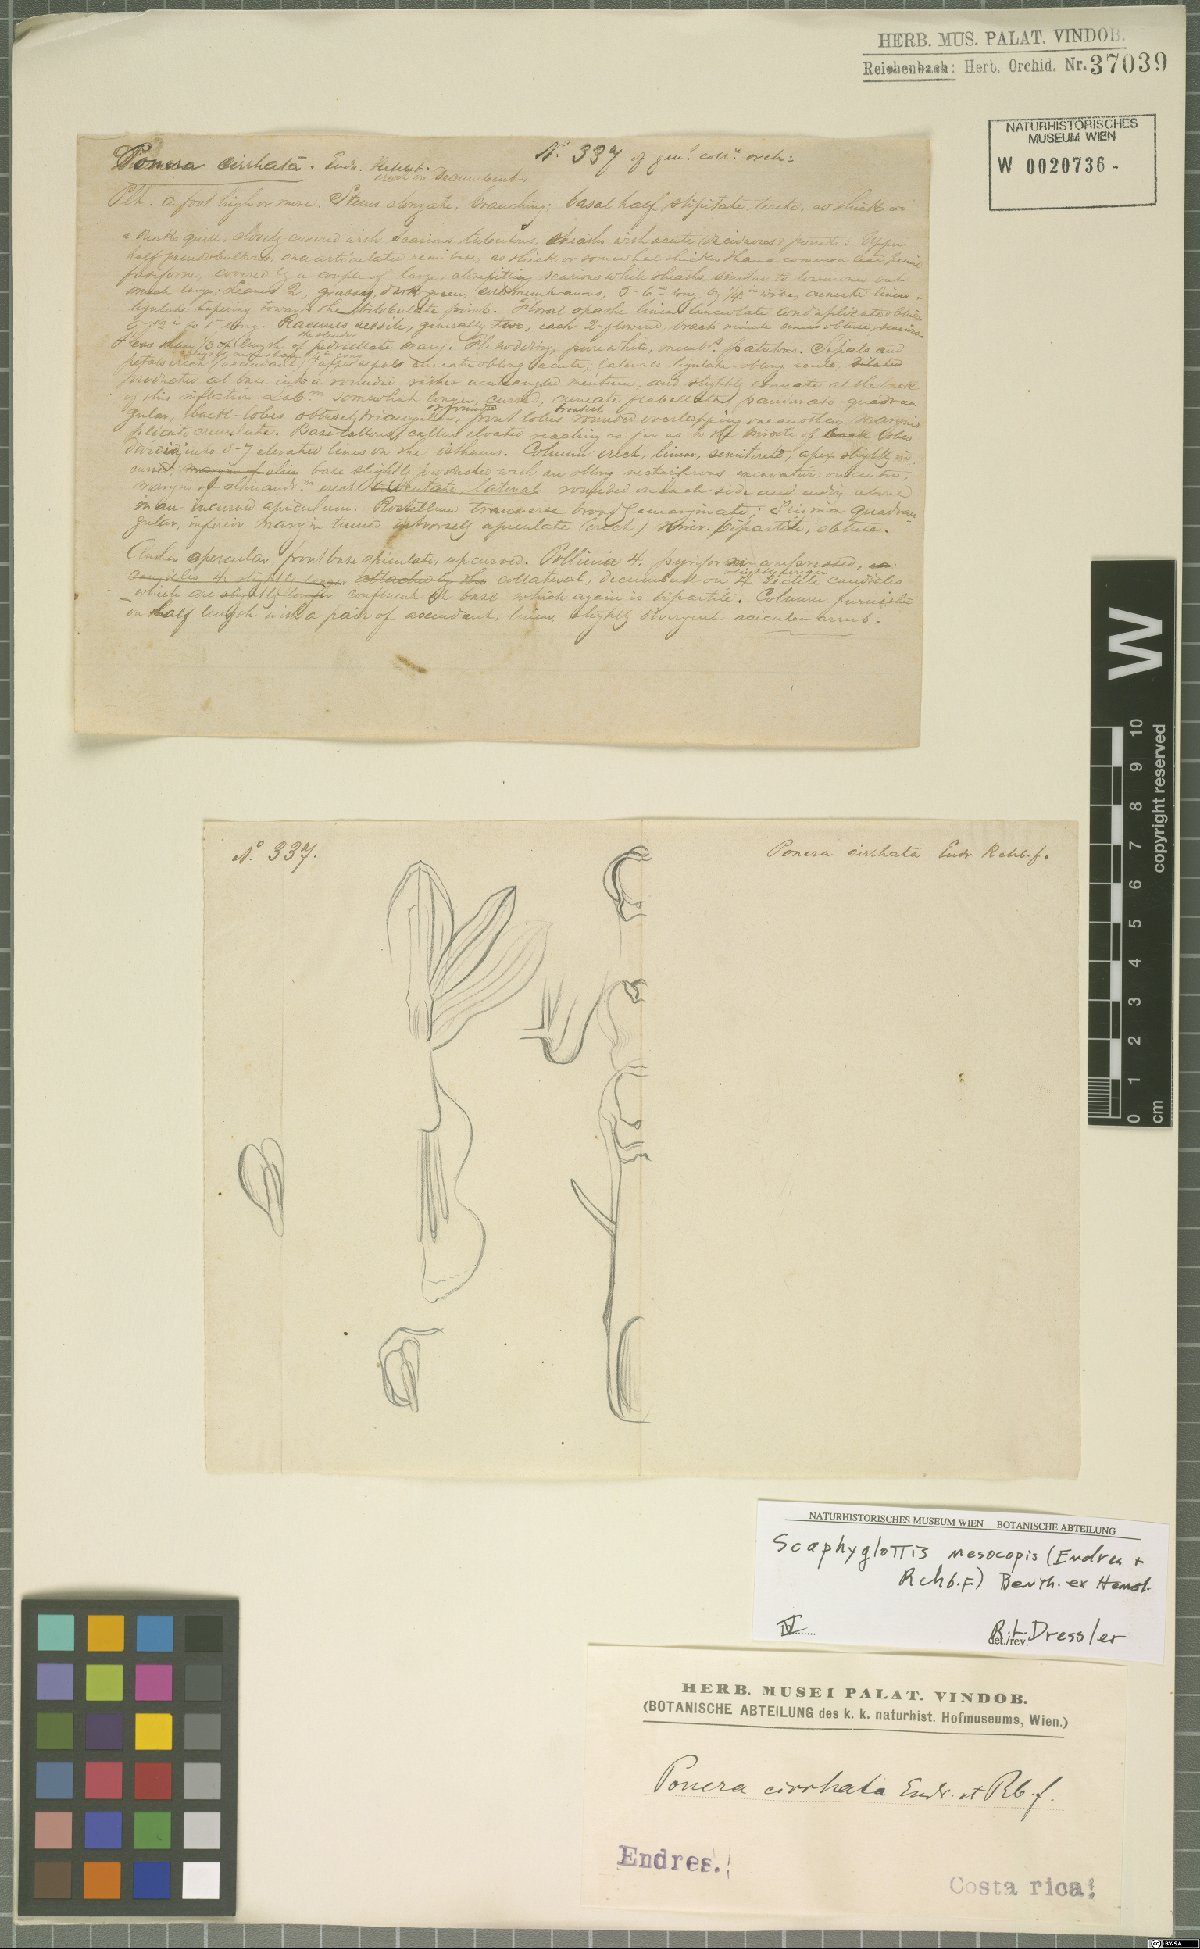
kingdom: Plantae
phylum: Tracheophyta
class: Liliopsida
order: Asparagales
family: Orchidaceae
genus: Scaphyglottis
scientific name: Scaphyglottis mesocopis
